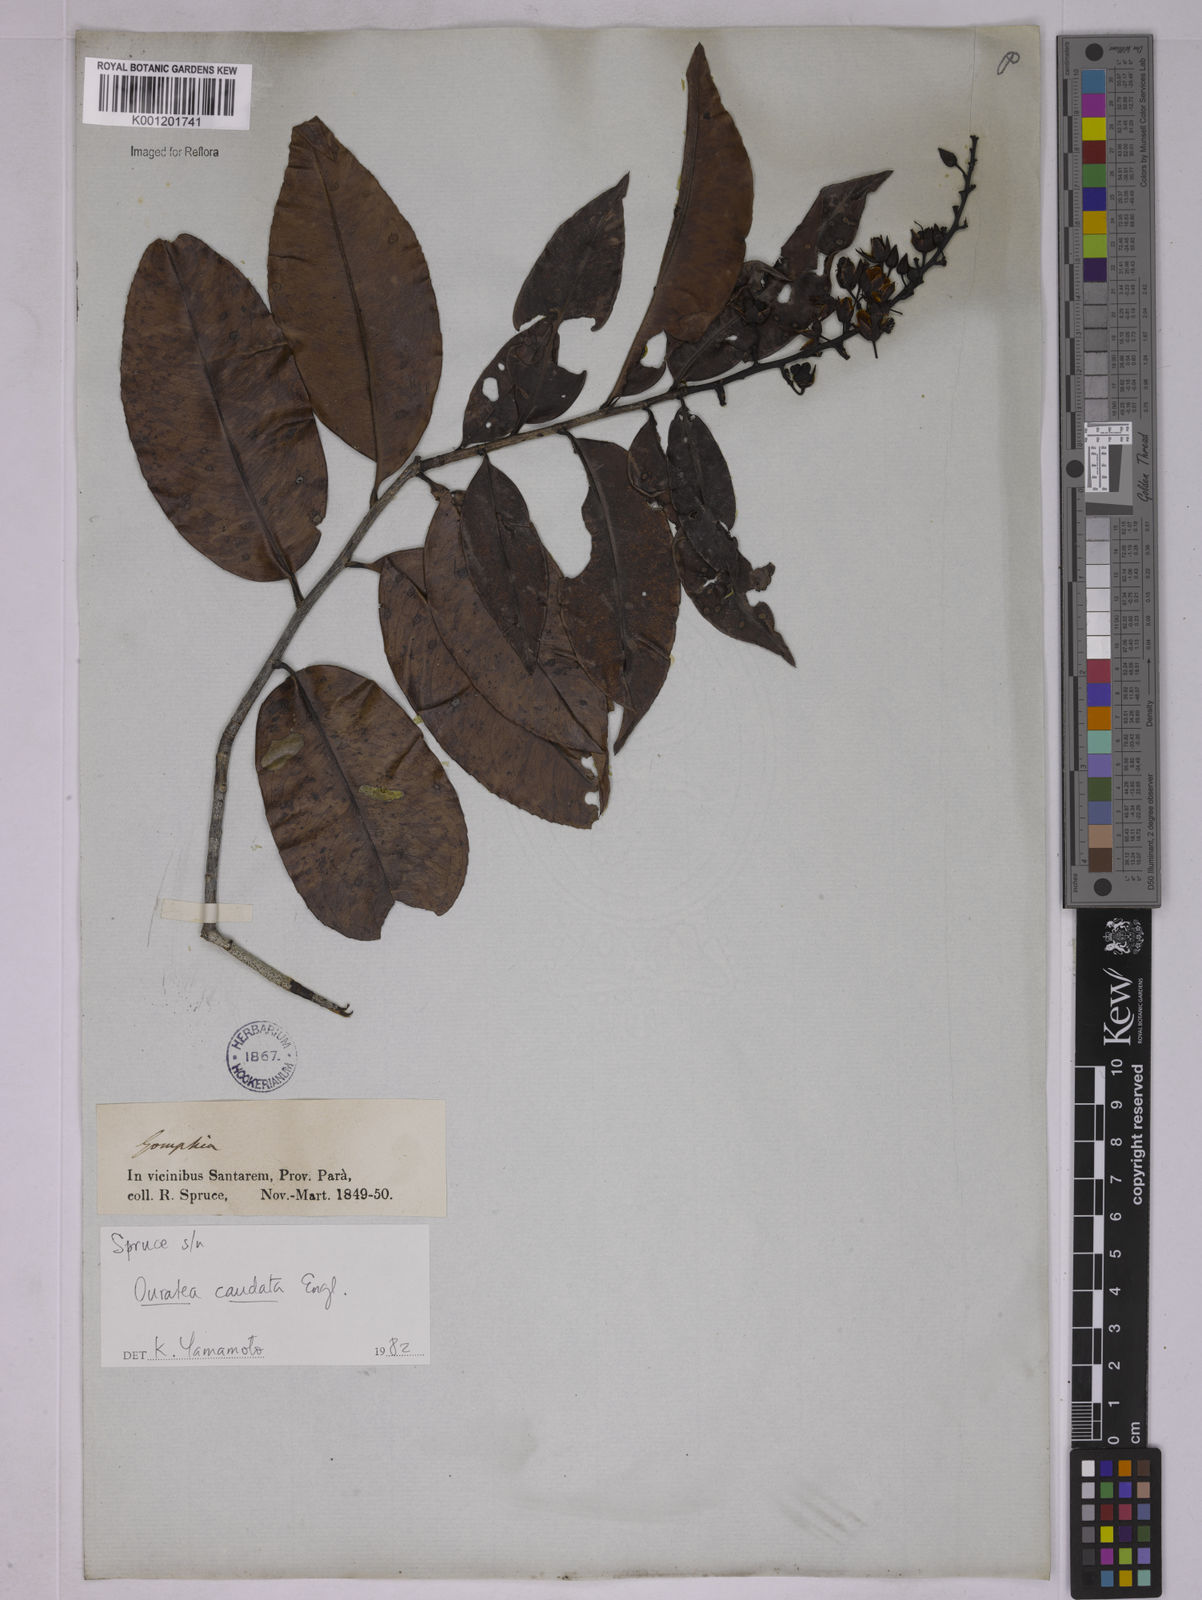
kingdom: Plantae
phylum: Tracheophyta
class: Magnoliopsida
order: Malpighiales
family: Ochnaceae
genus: Ouratea
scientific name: Ouratea caudata
